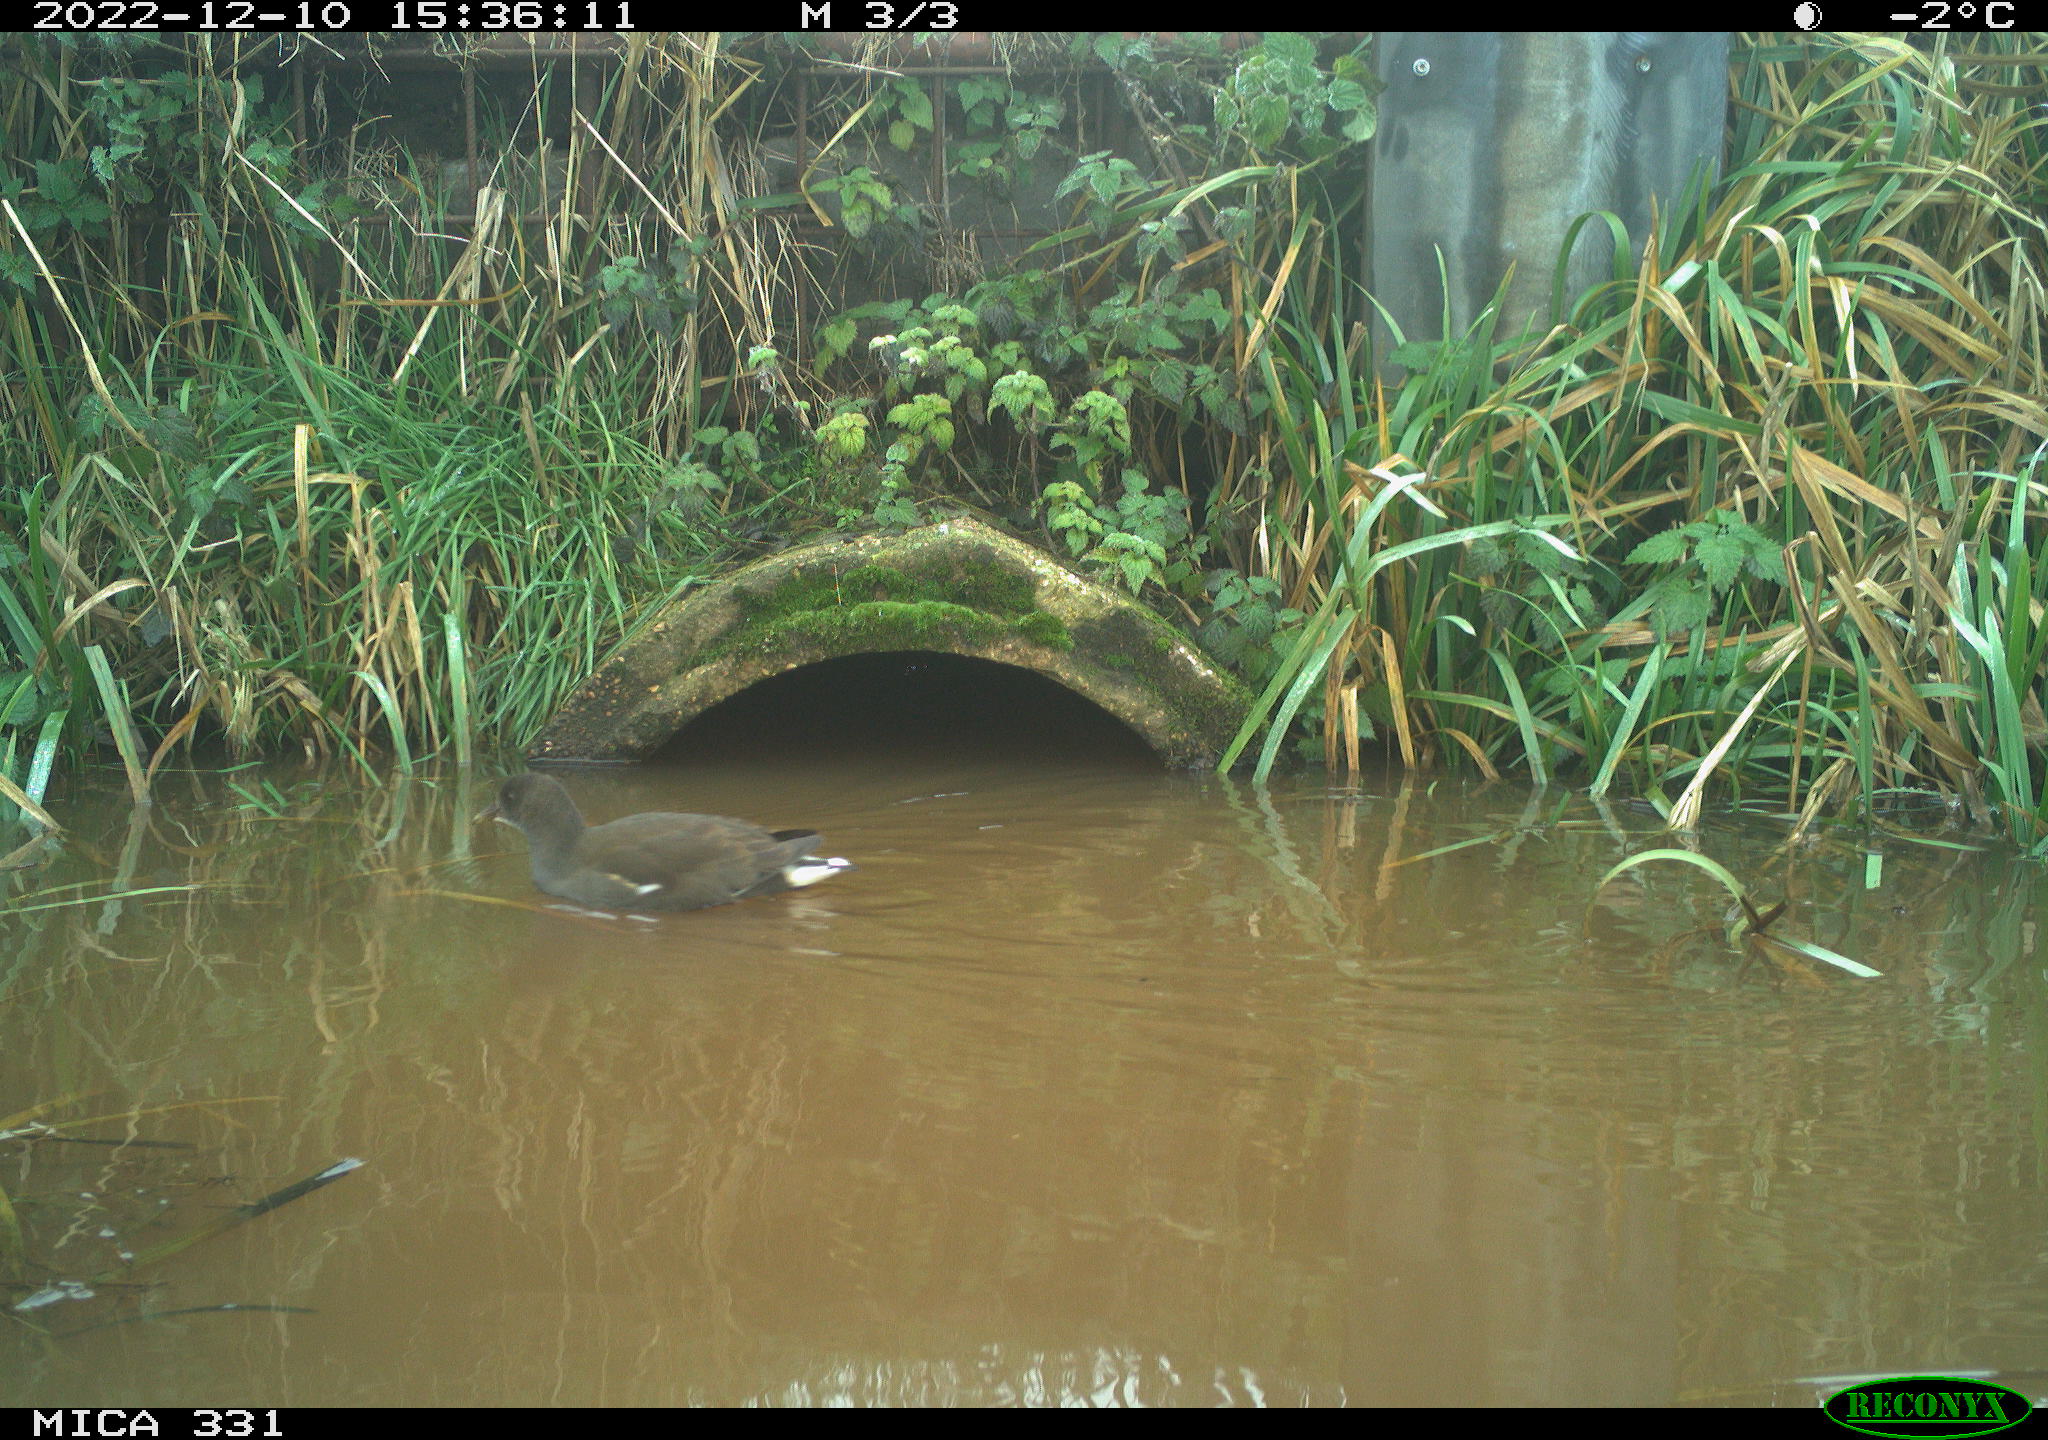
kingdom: Animalia
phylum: Chordata
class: Aves
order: Gruiformes
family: Rallidae
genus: Gallinula
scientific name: Gallinula chloropus
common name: Common moorhen
